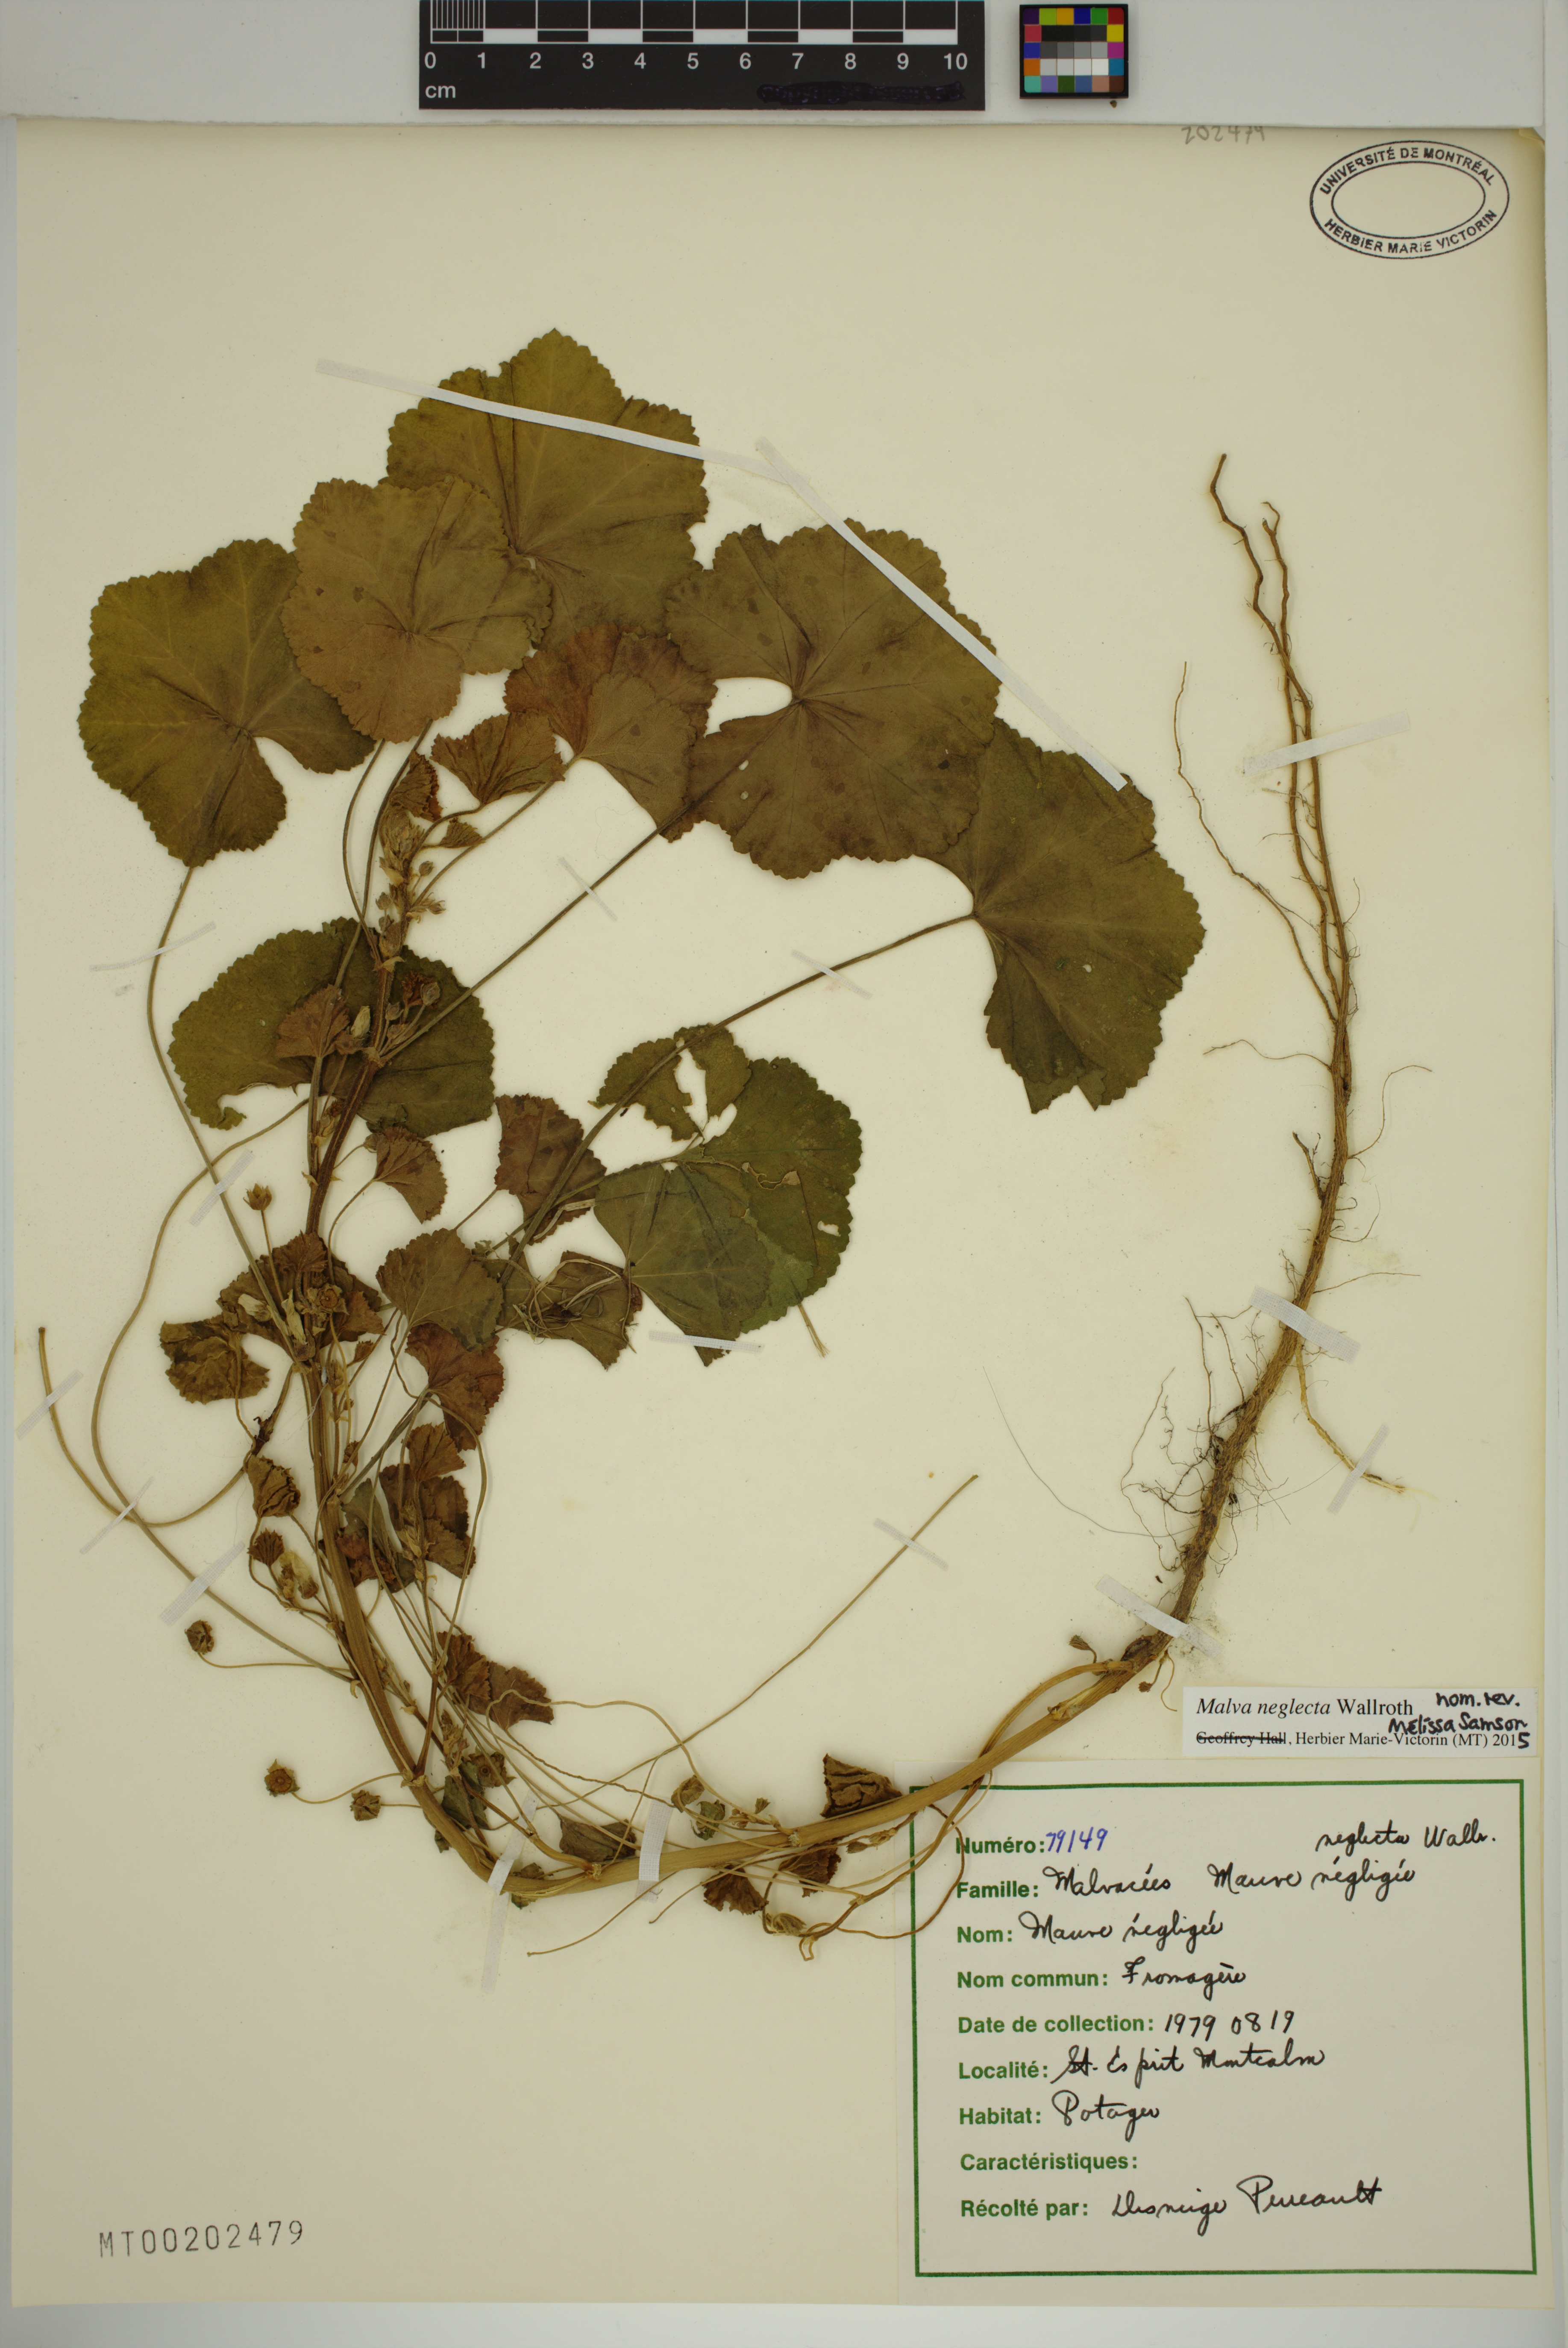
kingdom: Plantae
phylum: Tracheophyta
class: Magnoliopsida
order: Malvales
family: Malvaceae
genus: Malva
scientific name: Malva neglecta
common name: Common mallow
